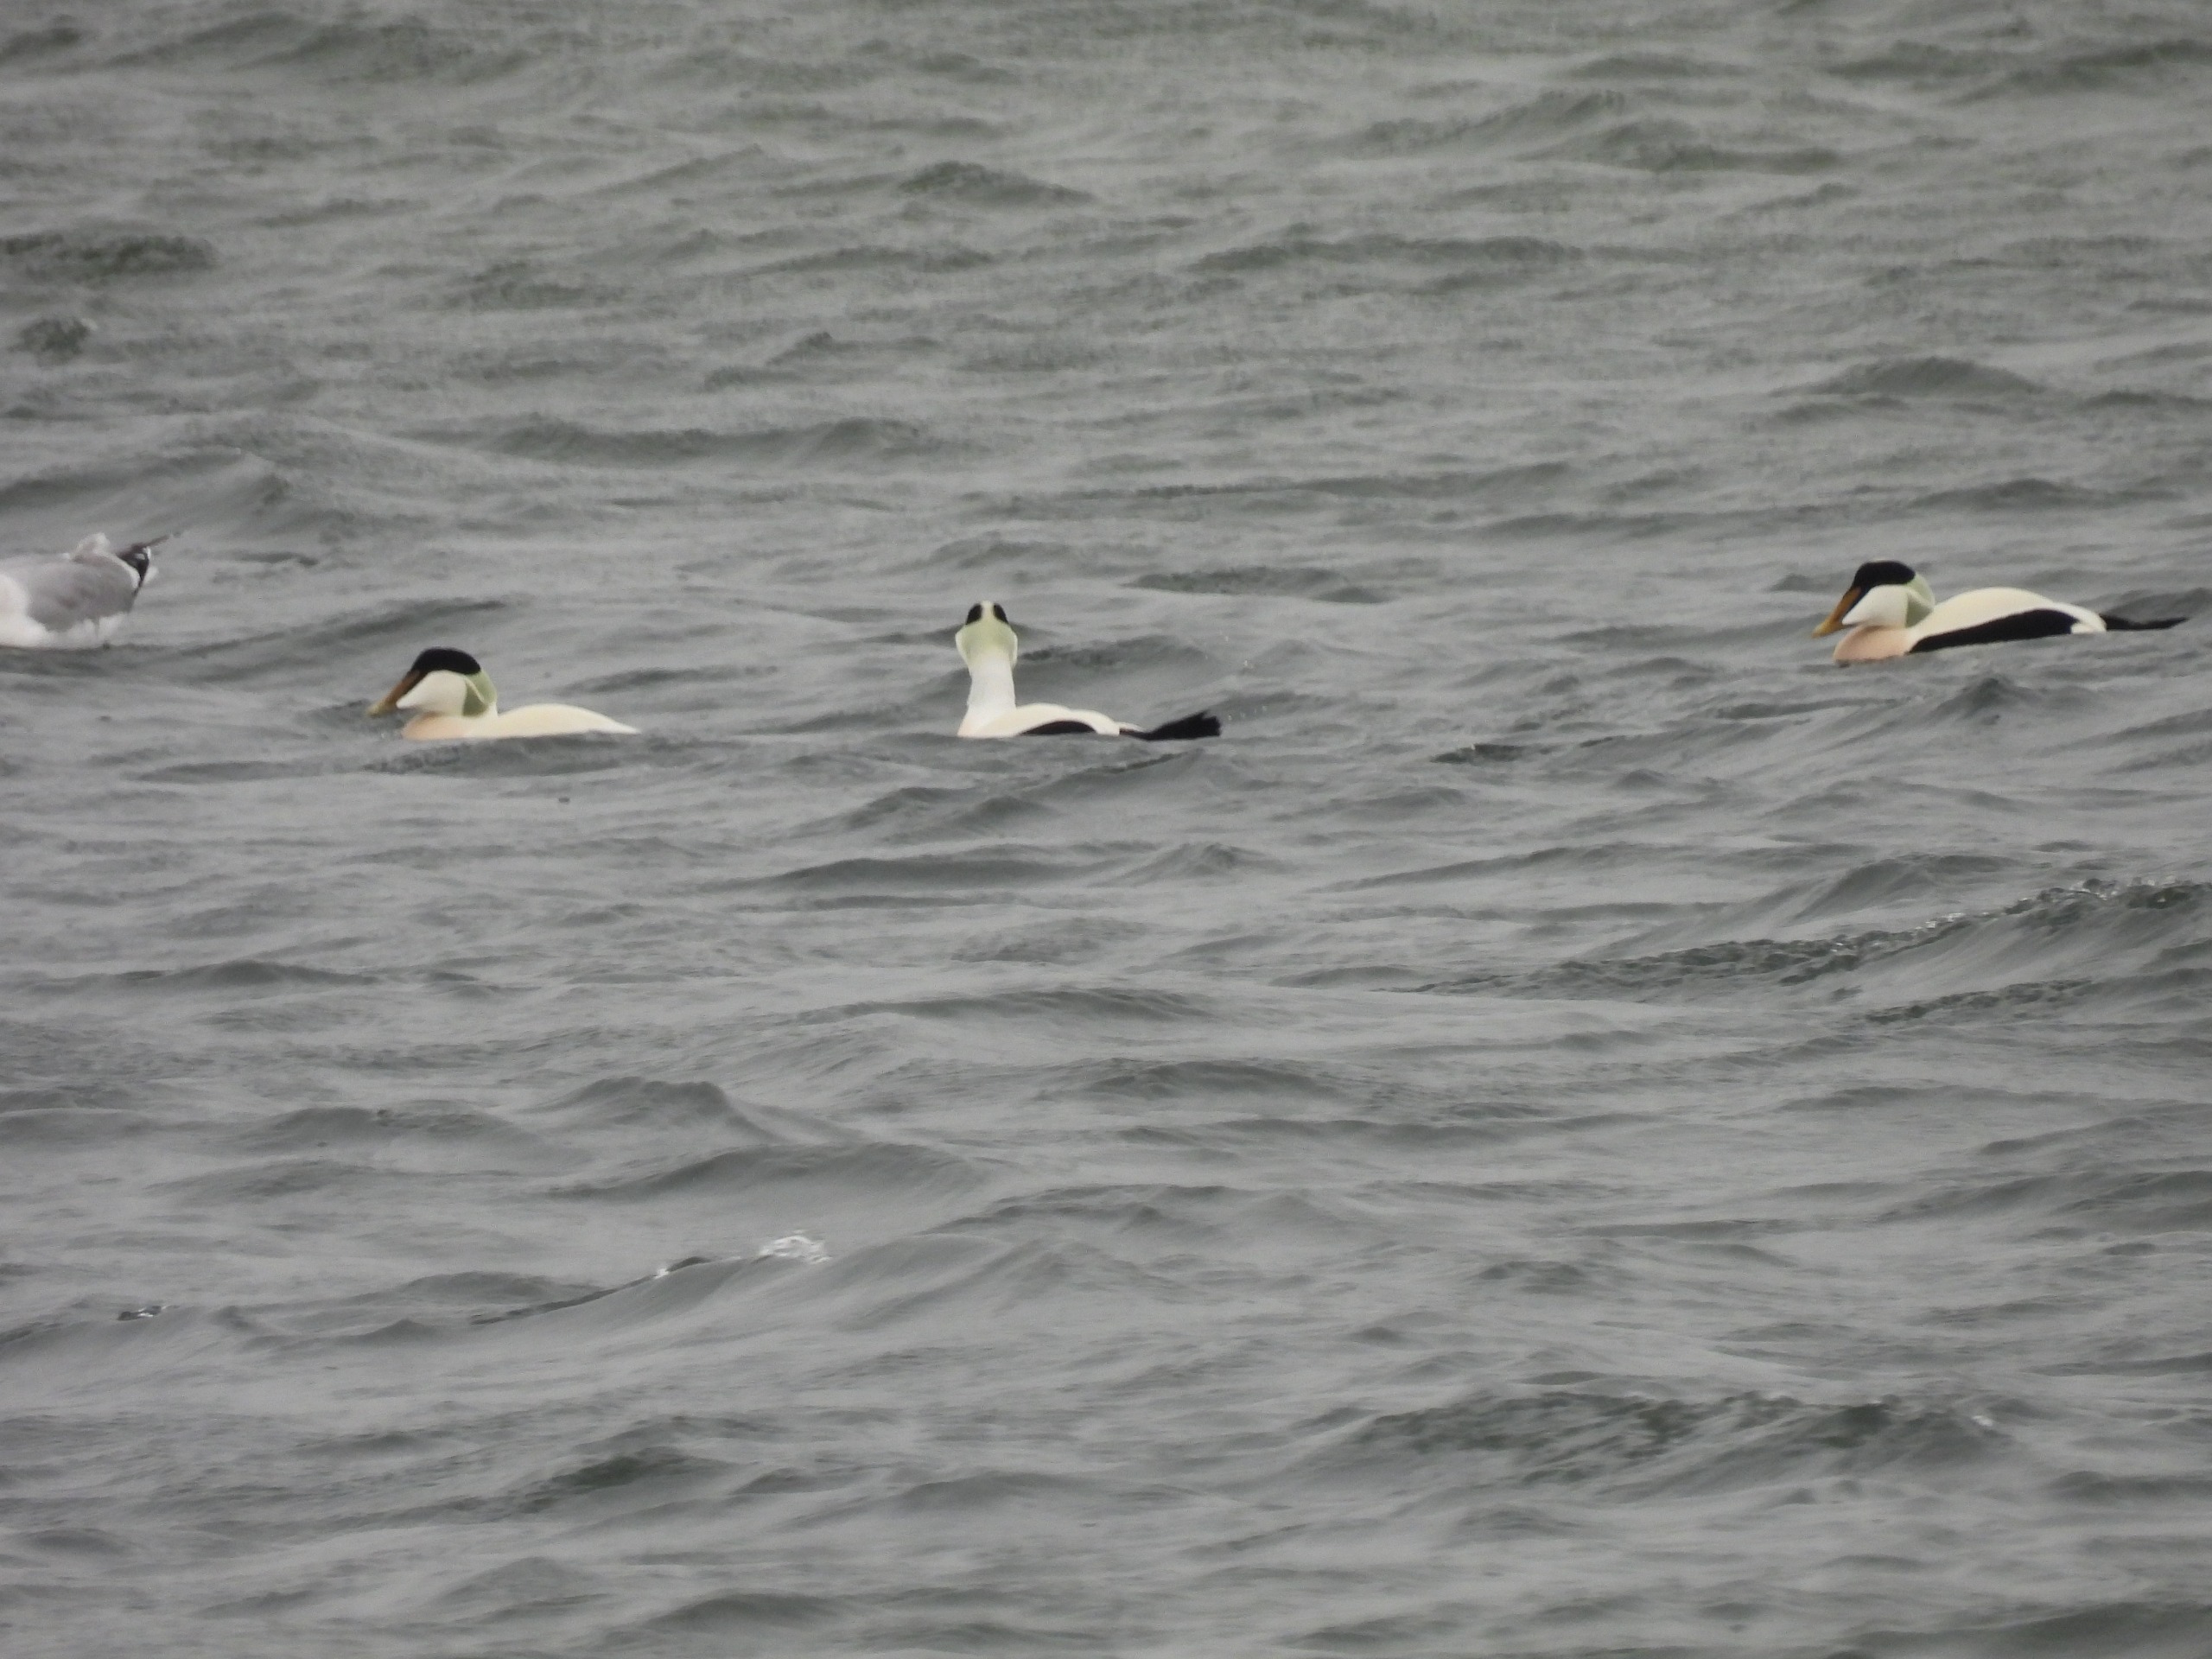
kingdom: Animalia
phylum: Chordata
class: Aves
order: Anseriformes
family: Anatidae
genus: Somateria
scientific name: Somateria mollissima
